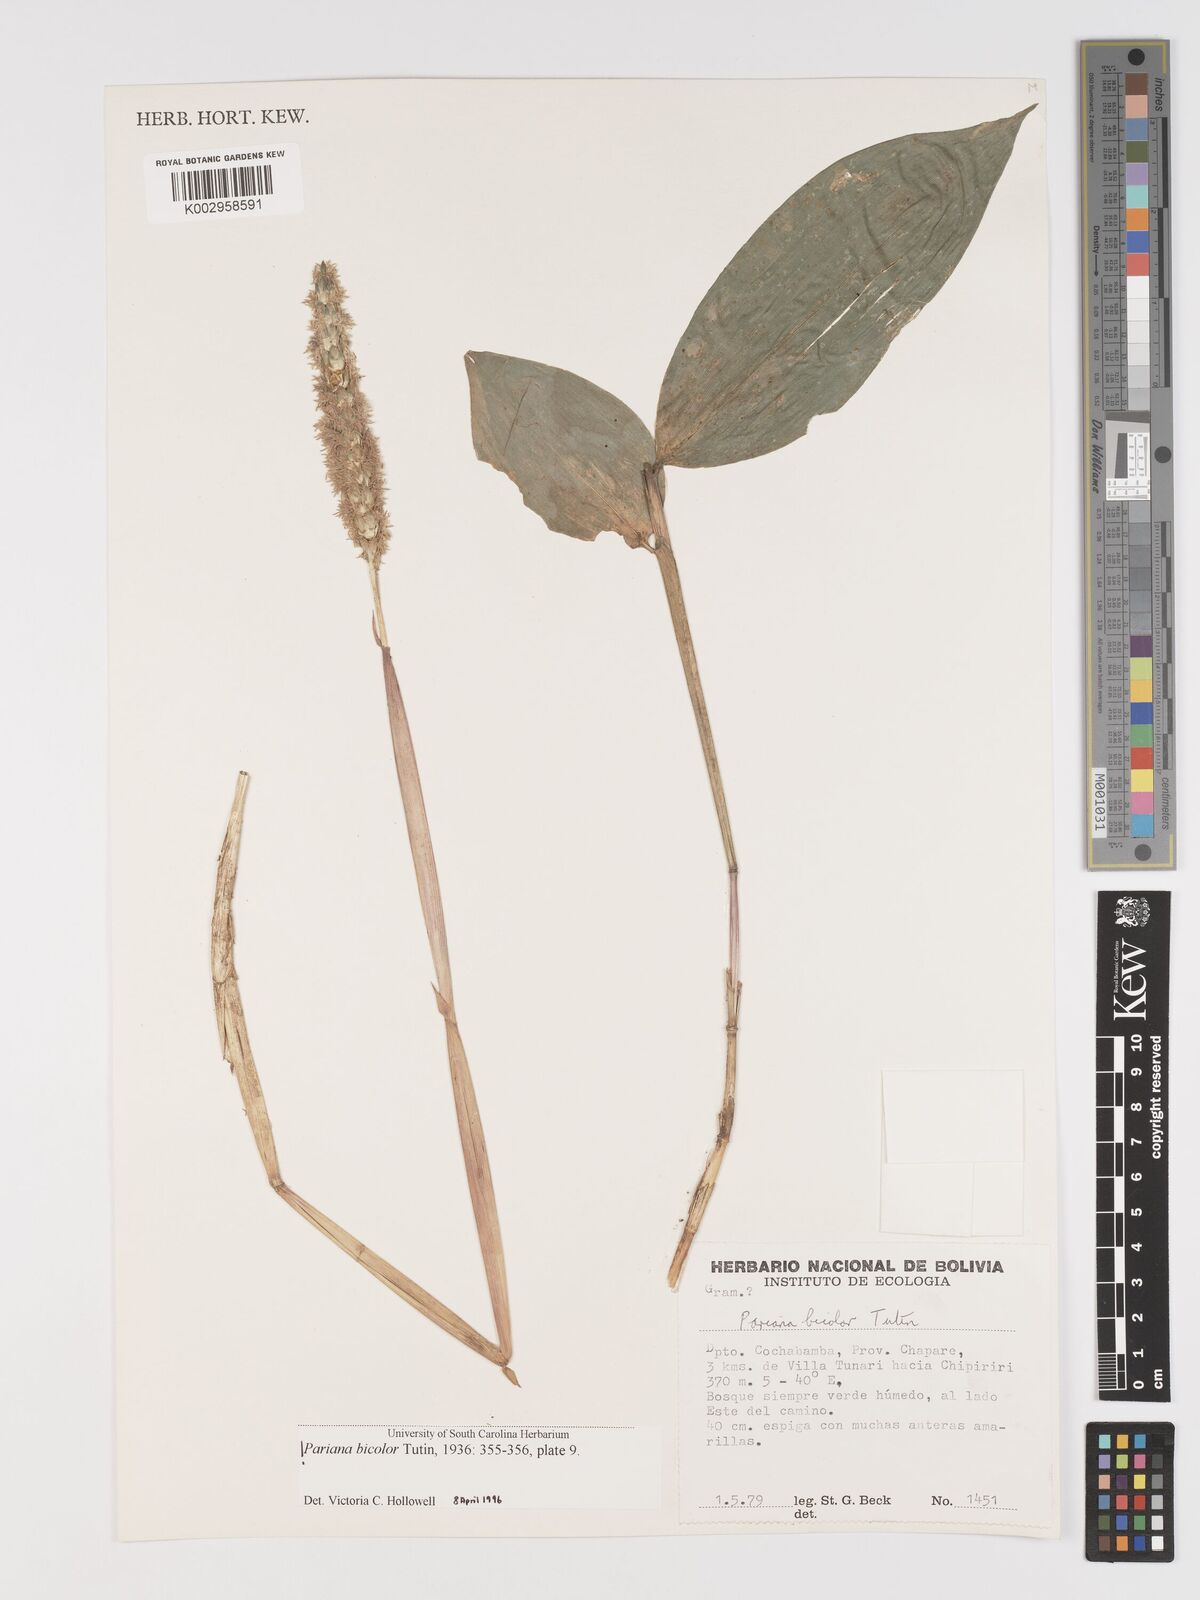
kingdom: Plantae
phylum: Tracheophyta
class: Liliopsida
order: Poales
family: Poaceae
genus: Pariana
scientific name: Pariana bicolor
